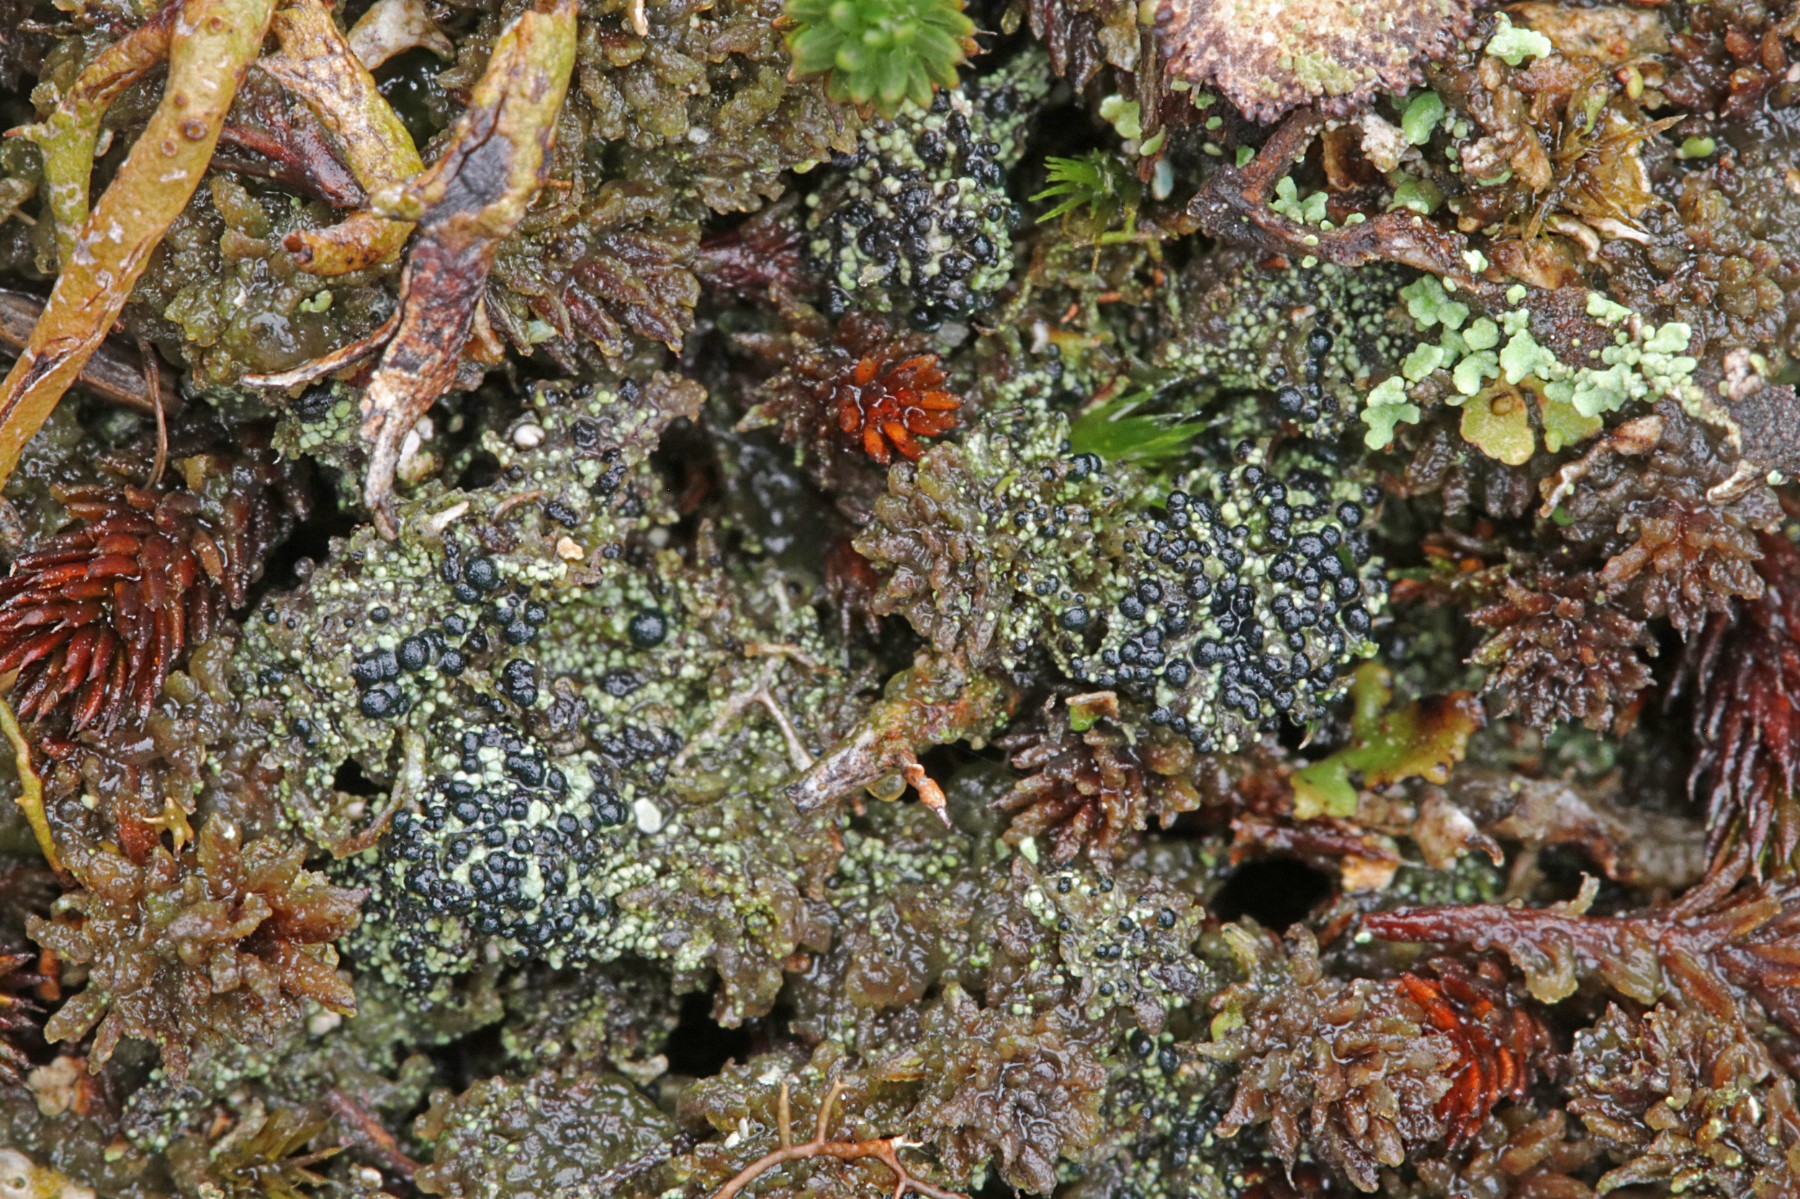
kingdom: Fungi
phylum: Ascomycota
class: Lecanoromycetes
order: Lecanorales
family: Byssolomataceae
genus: Micarea
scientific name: Micarea lignaria
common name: tørve-knaplav
